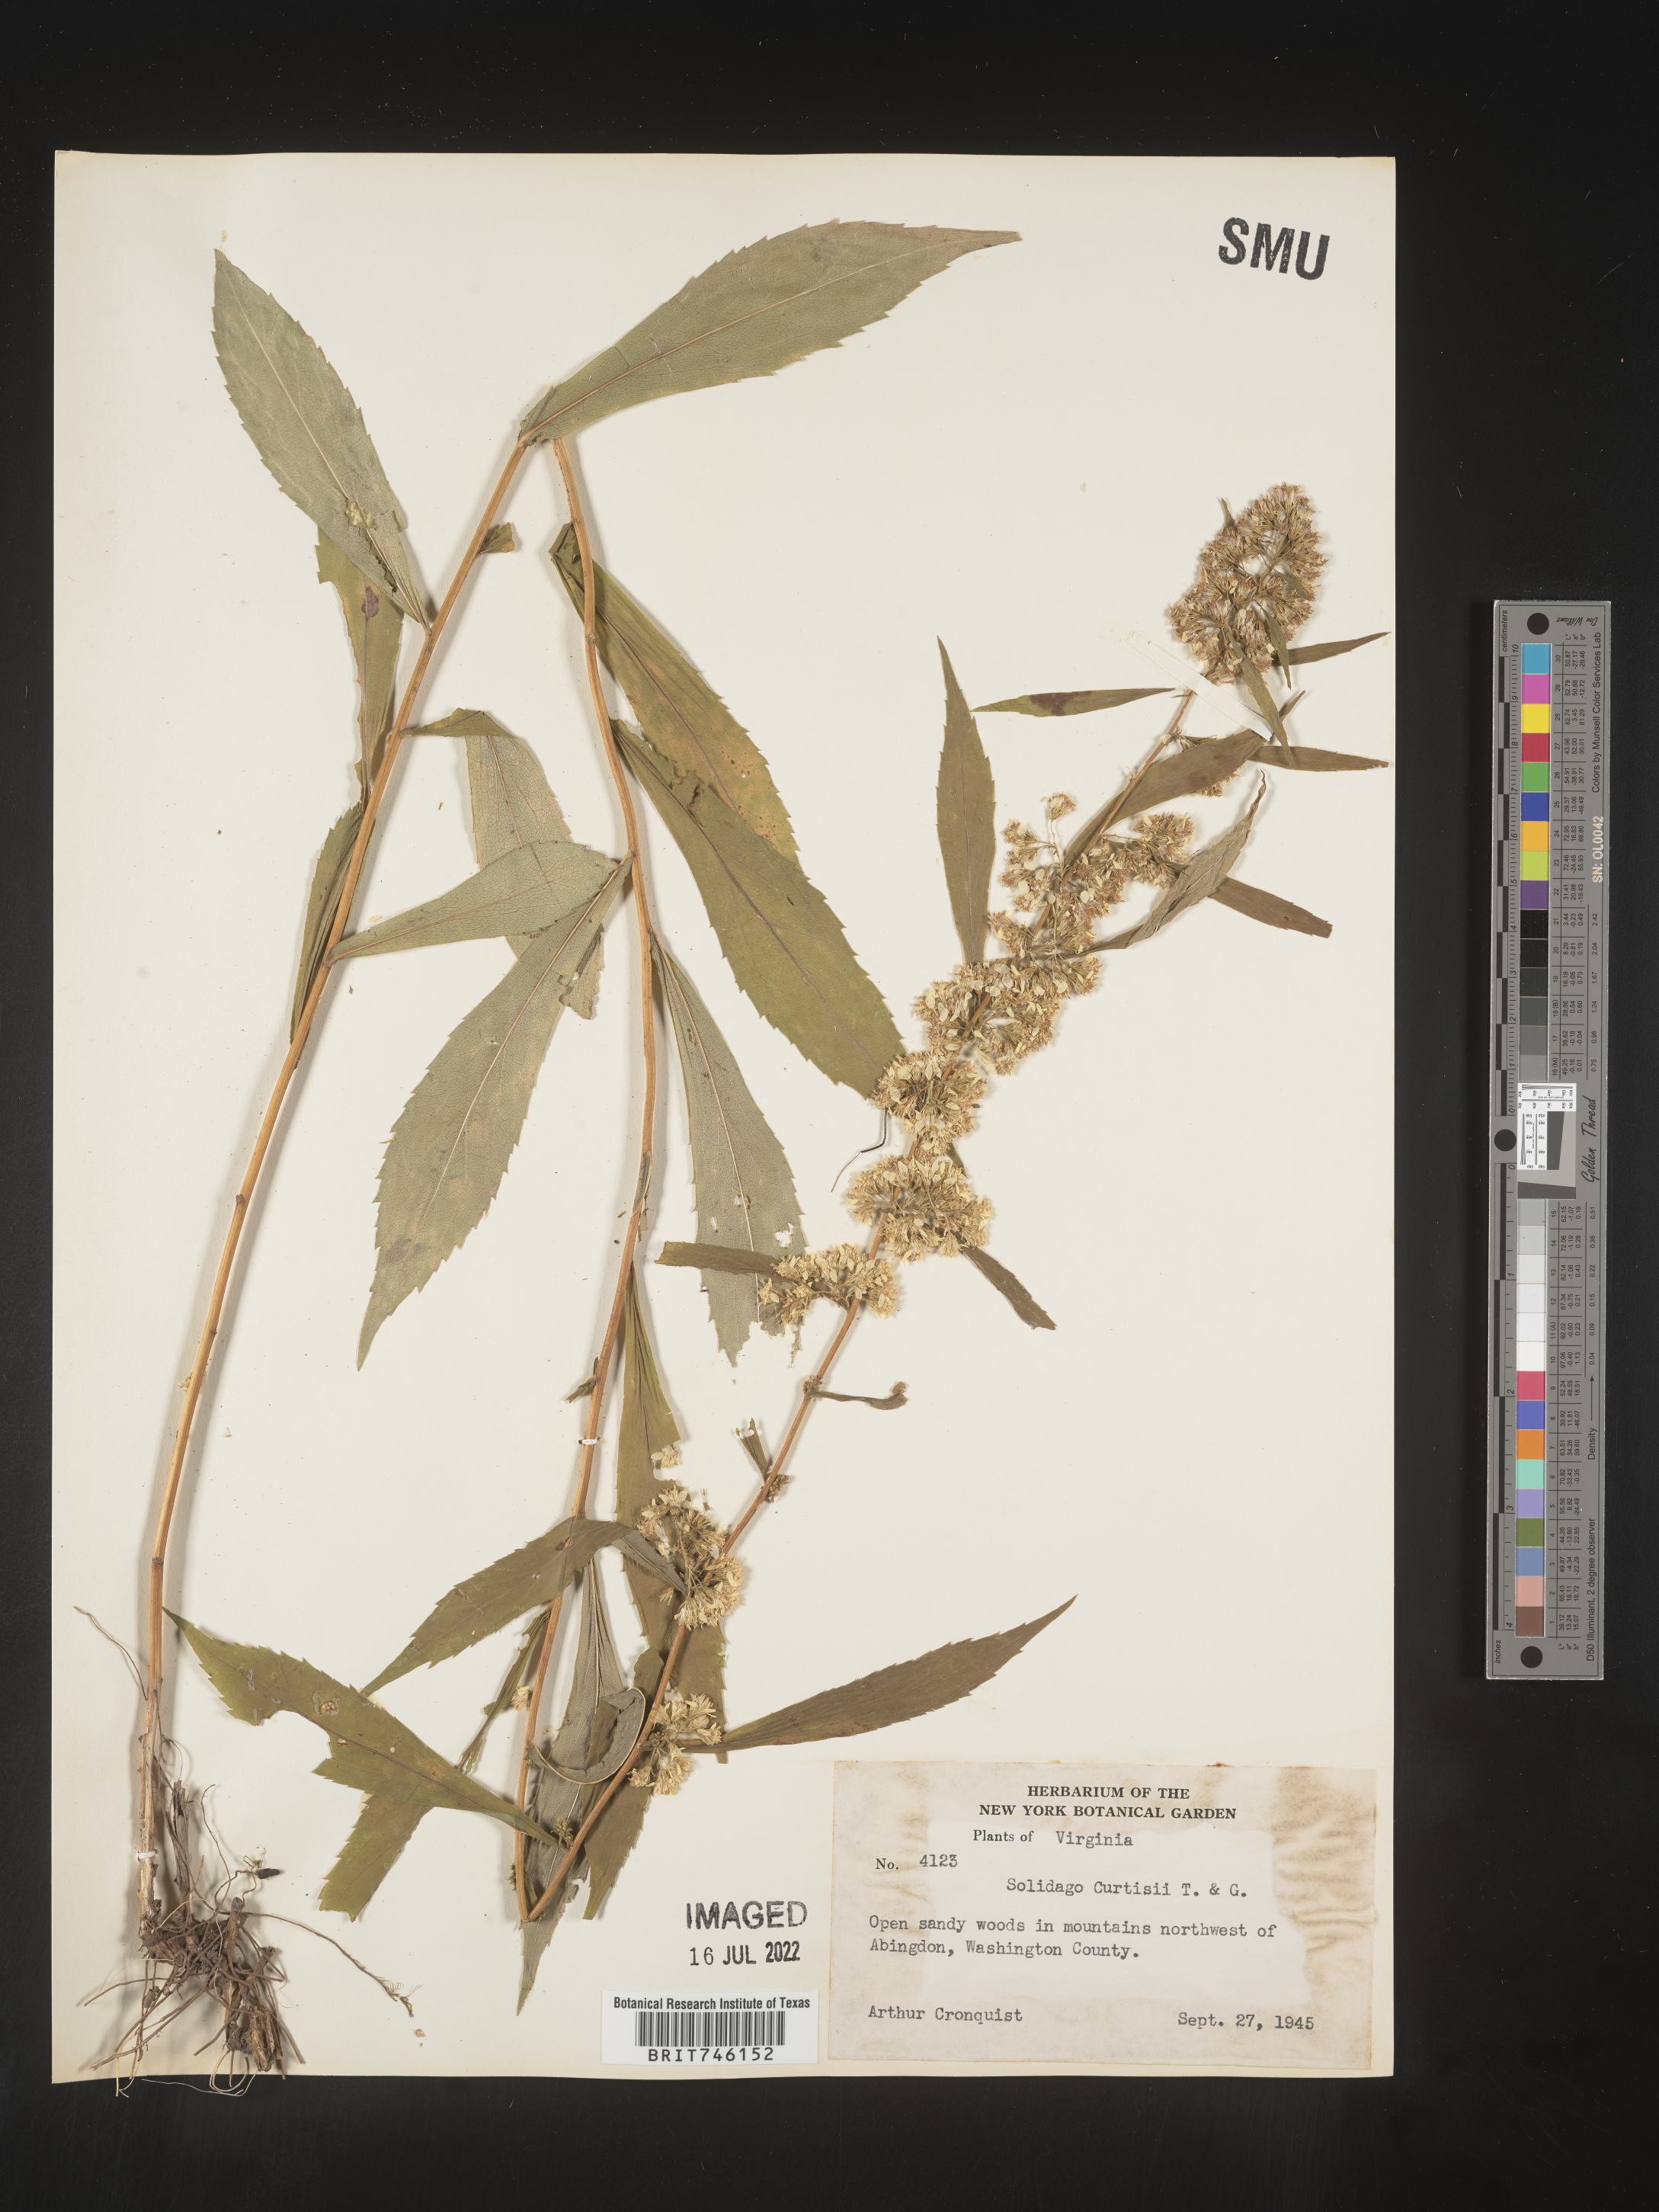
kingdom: Plantae
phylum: Tracheophyta
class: Magnoliopsida
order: Asterales
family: Asteraceae
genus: Solidago
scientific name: Solidago curtisii
